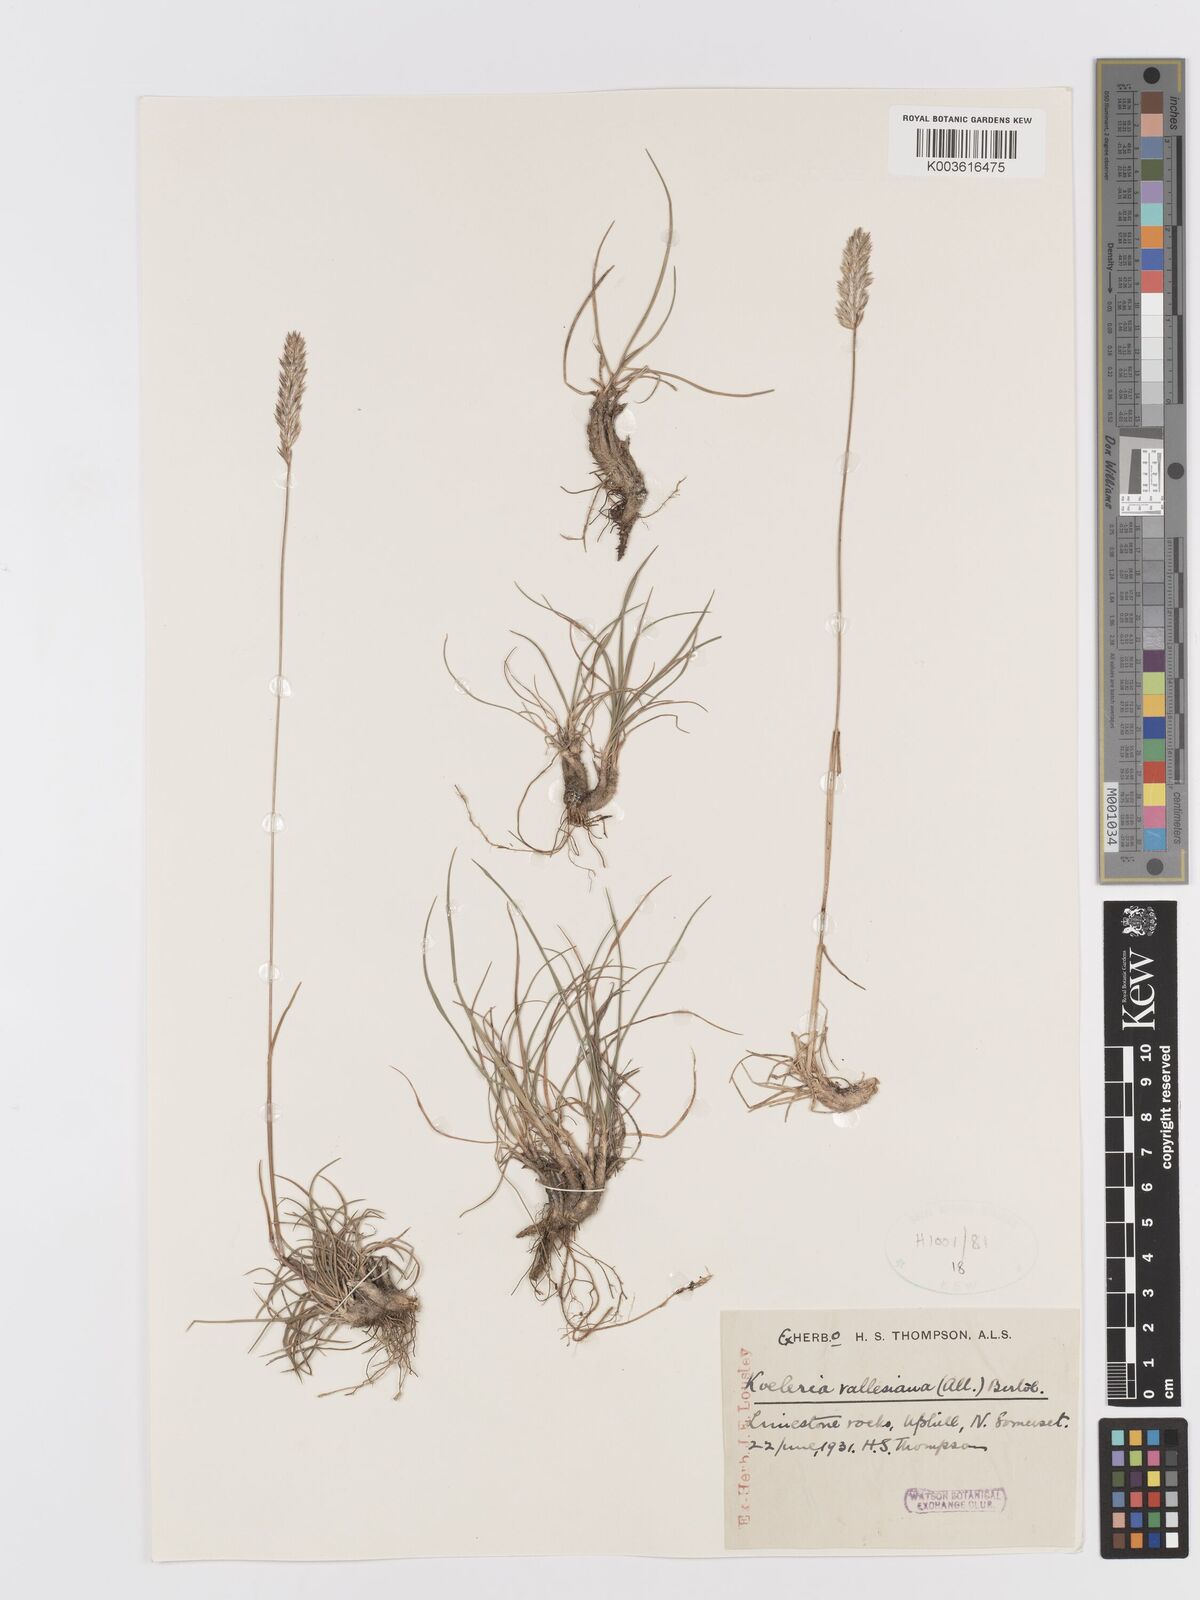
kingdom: Plantae
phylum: Tracheophyta
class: Liliopsida
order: Poales
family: Poaceae
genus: Koeleria
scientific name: Koeleria vallesiana
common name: Somerset hair-grass
